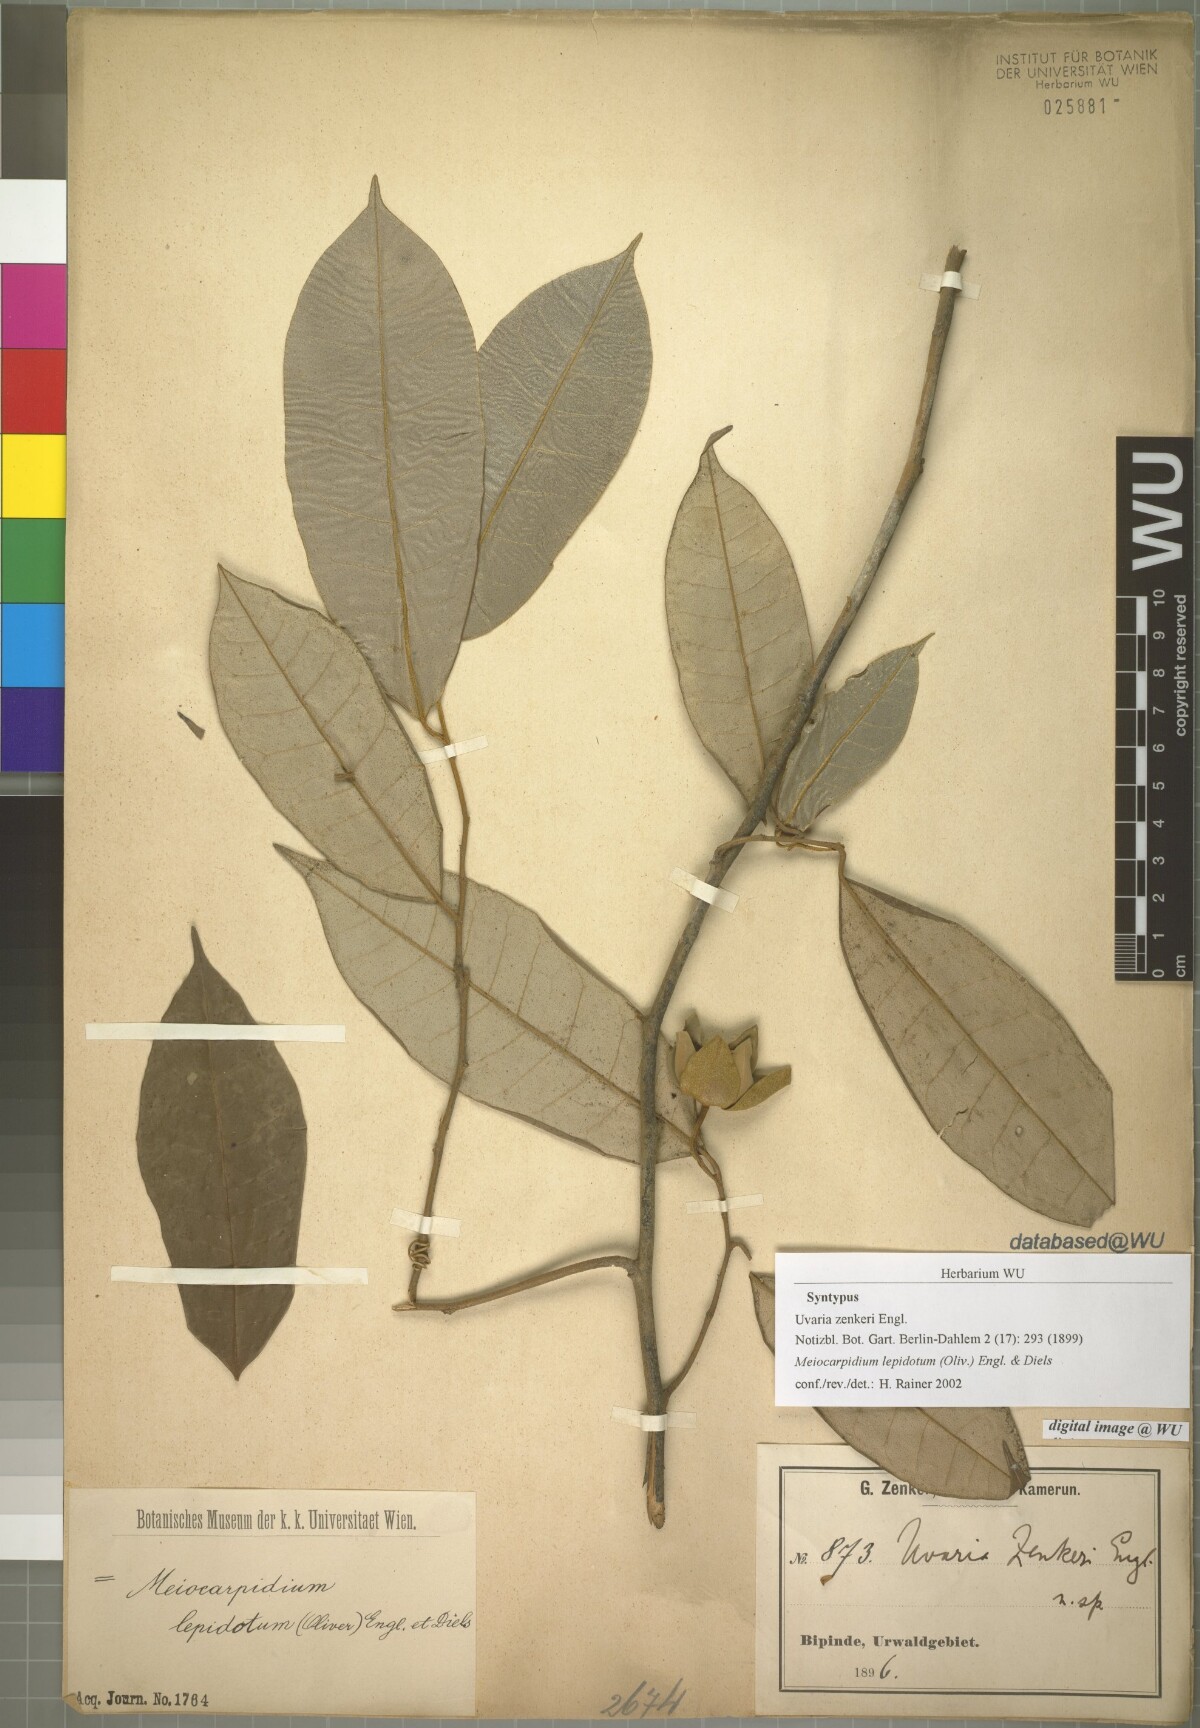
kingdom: Plantae
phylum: Tracheophyta
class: Magnoliopsida
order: Magnoliales
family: Annonaceae
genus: Meiocarpidium
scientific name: Meiocarpidium lepidotum
